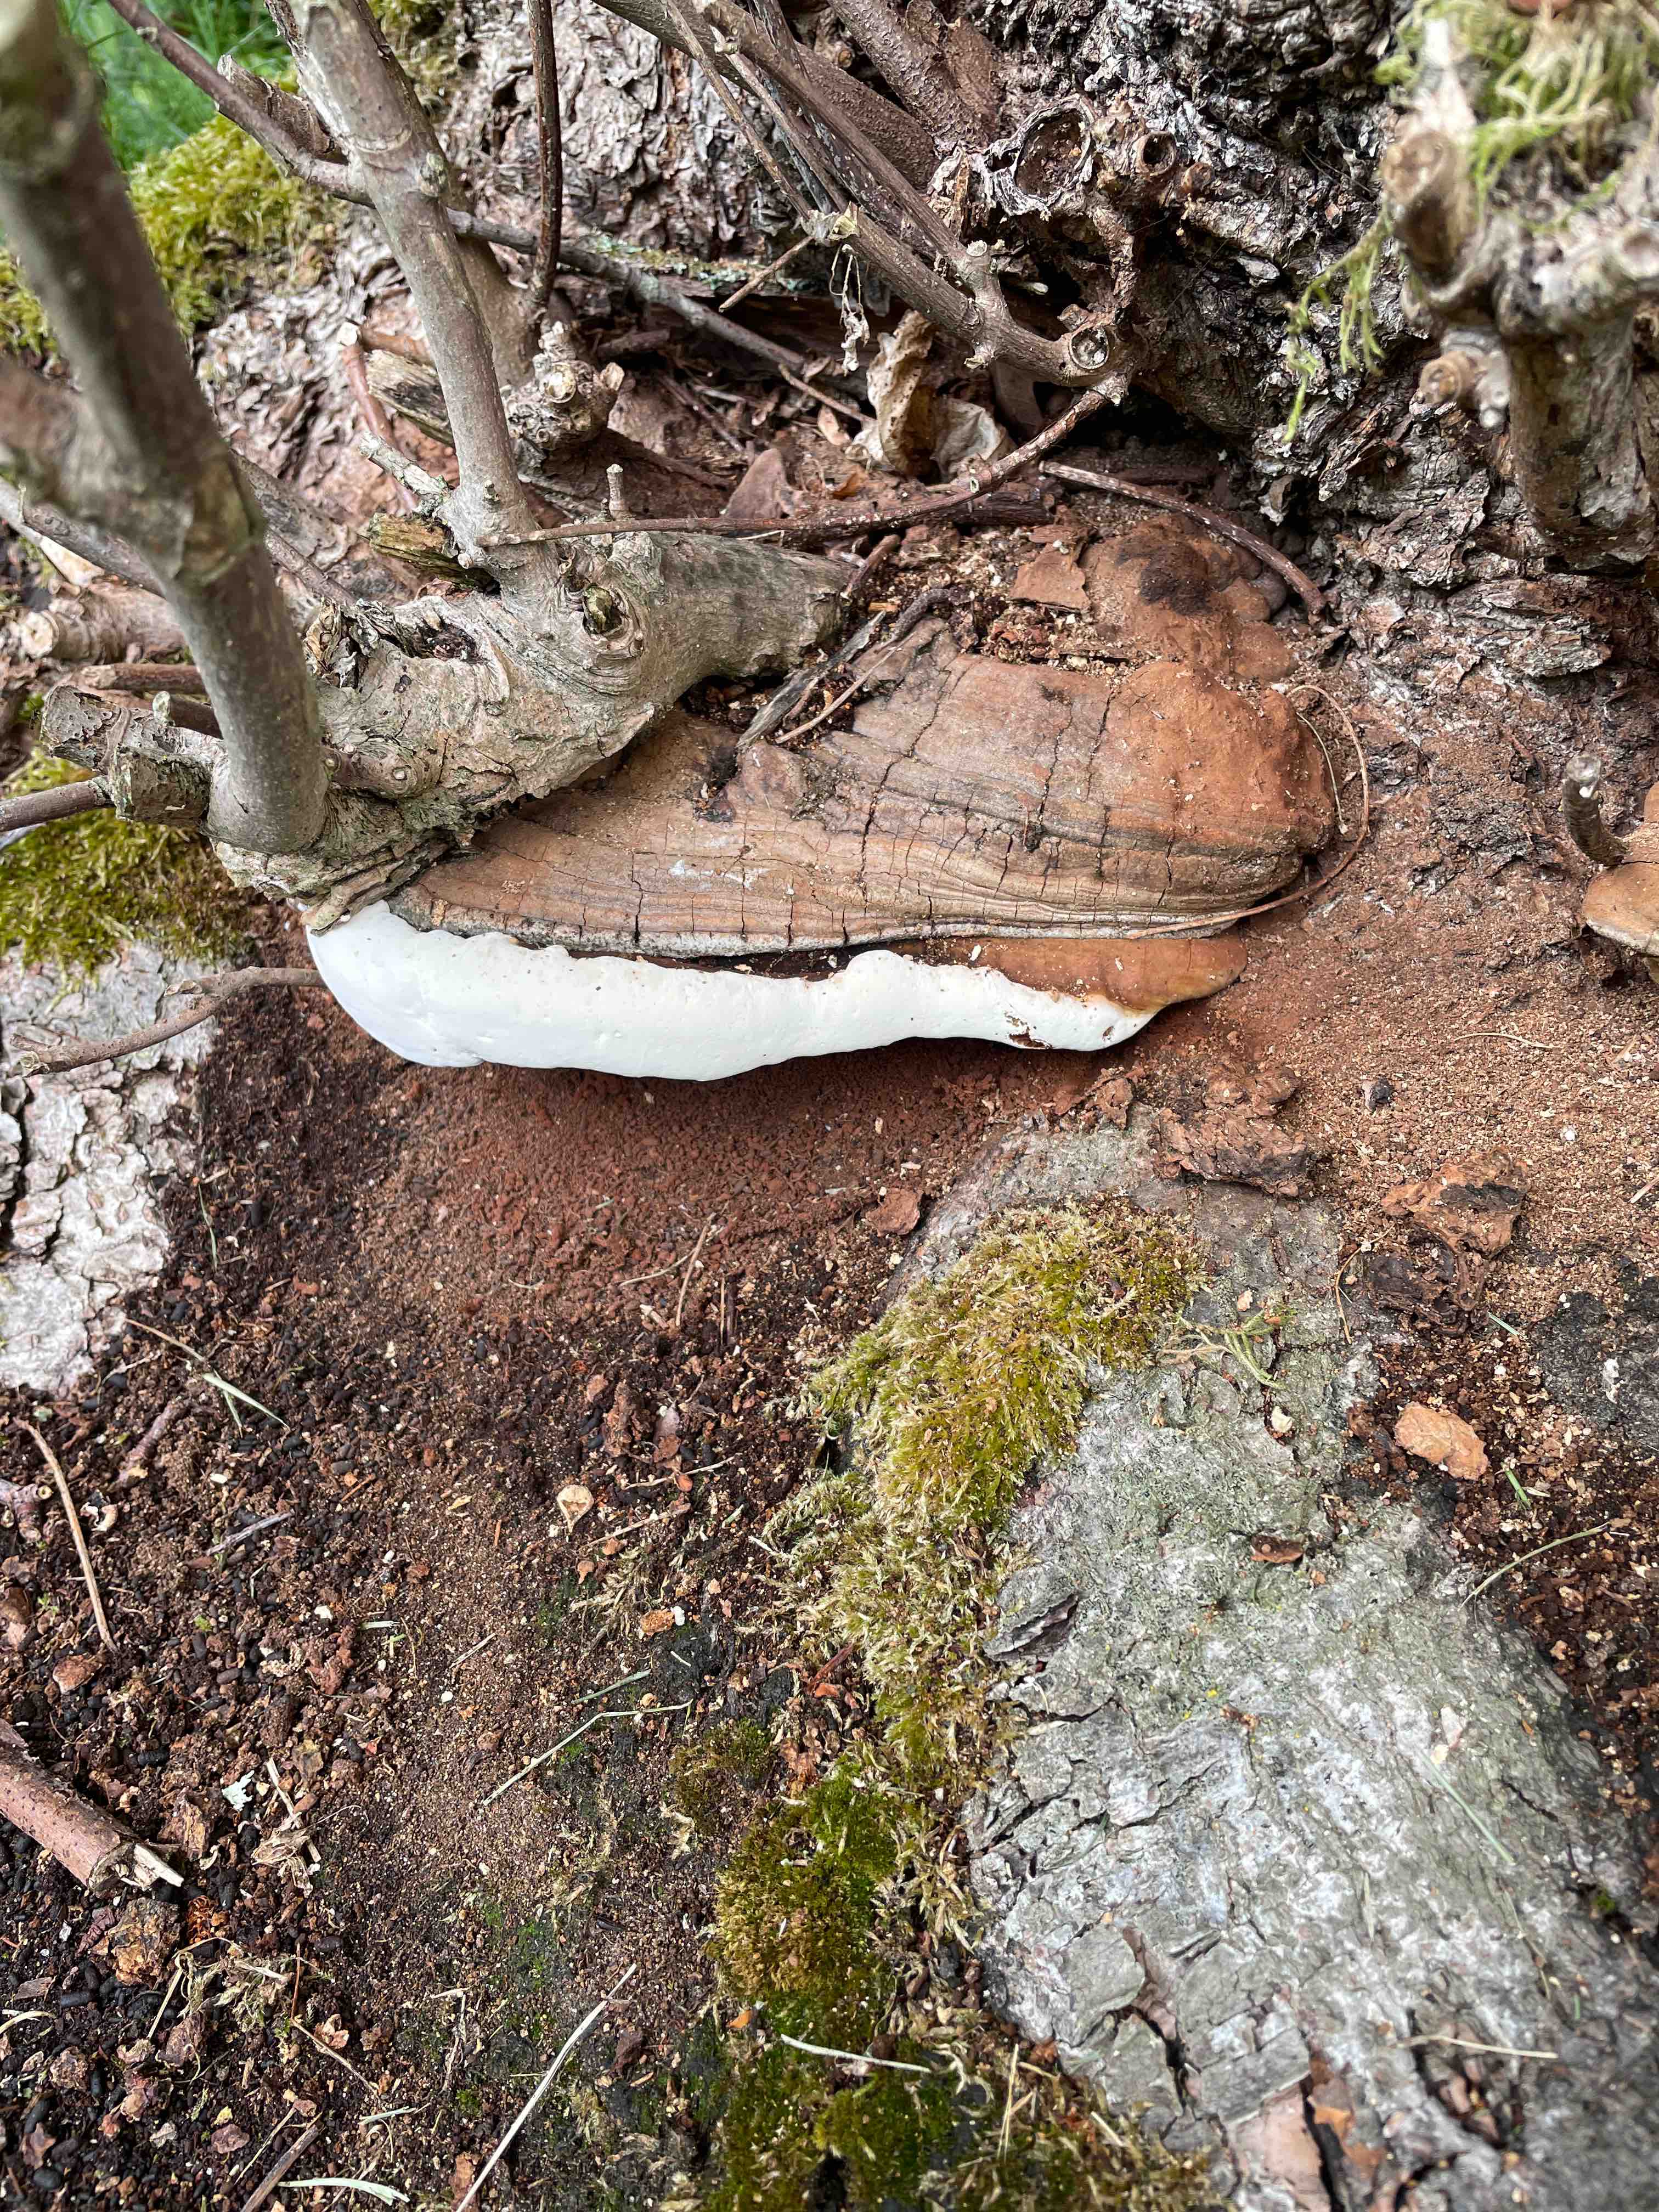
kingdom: Fungi
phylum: Basidiomycota
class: Agaricomycetes
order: Polyporales
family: Polyporaceae
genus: Ganoderma
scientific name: Ganoderma adspersum
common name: grov lakporesvamp
